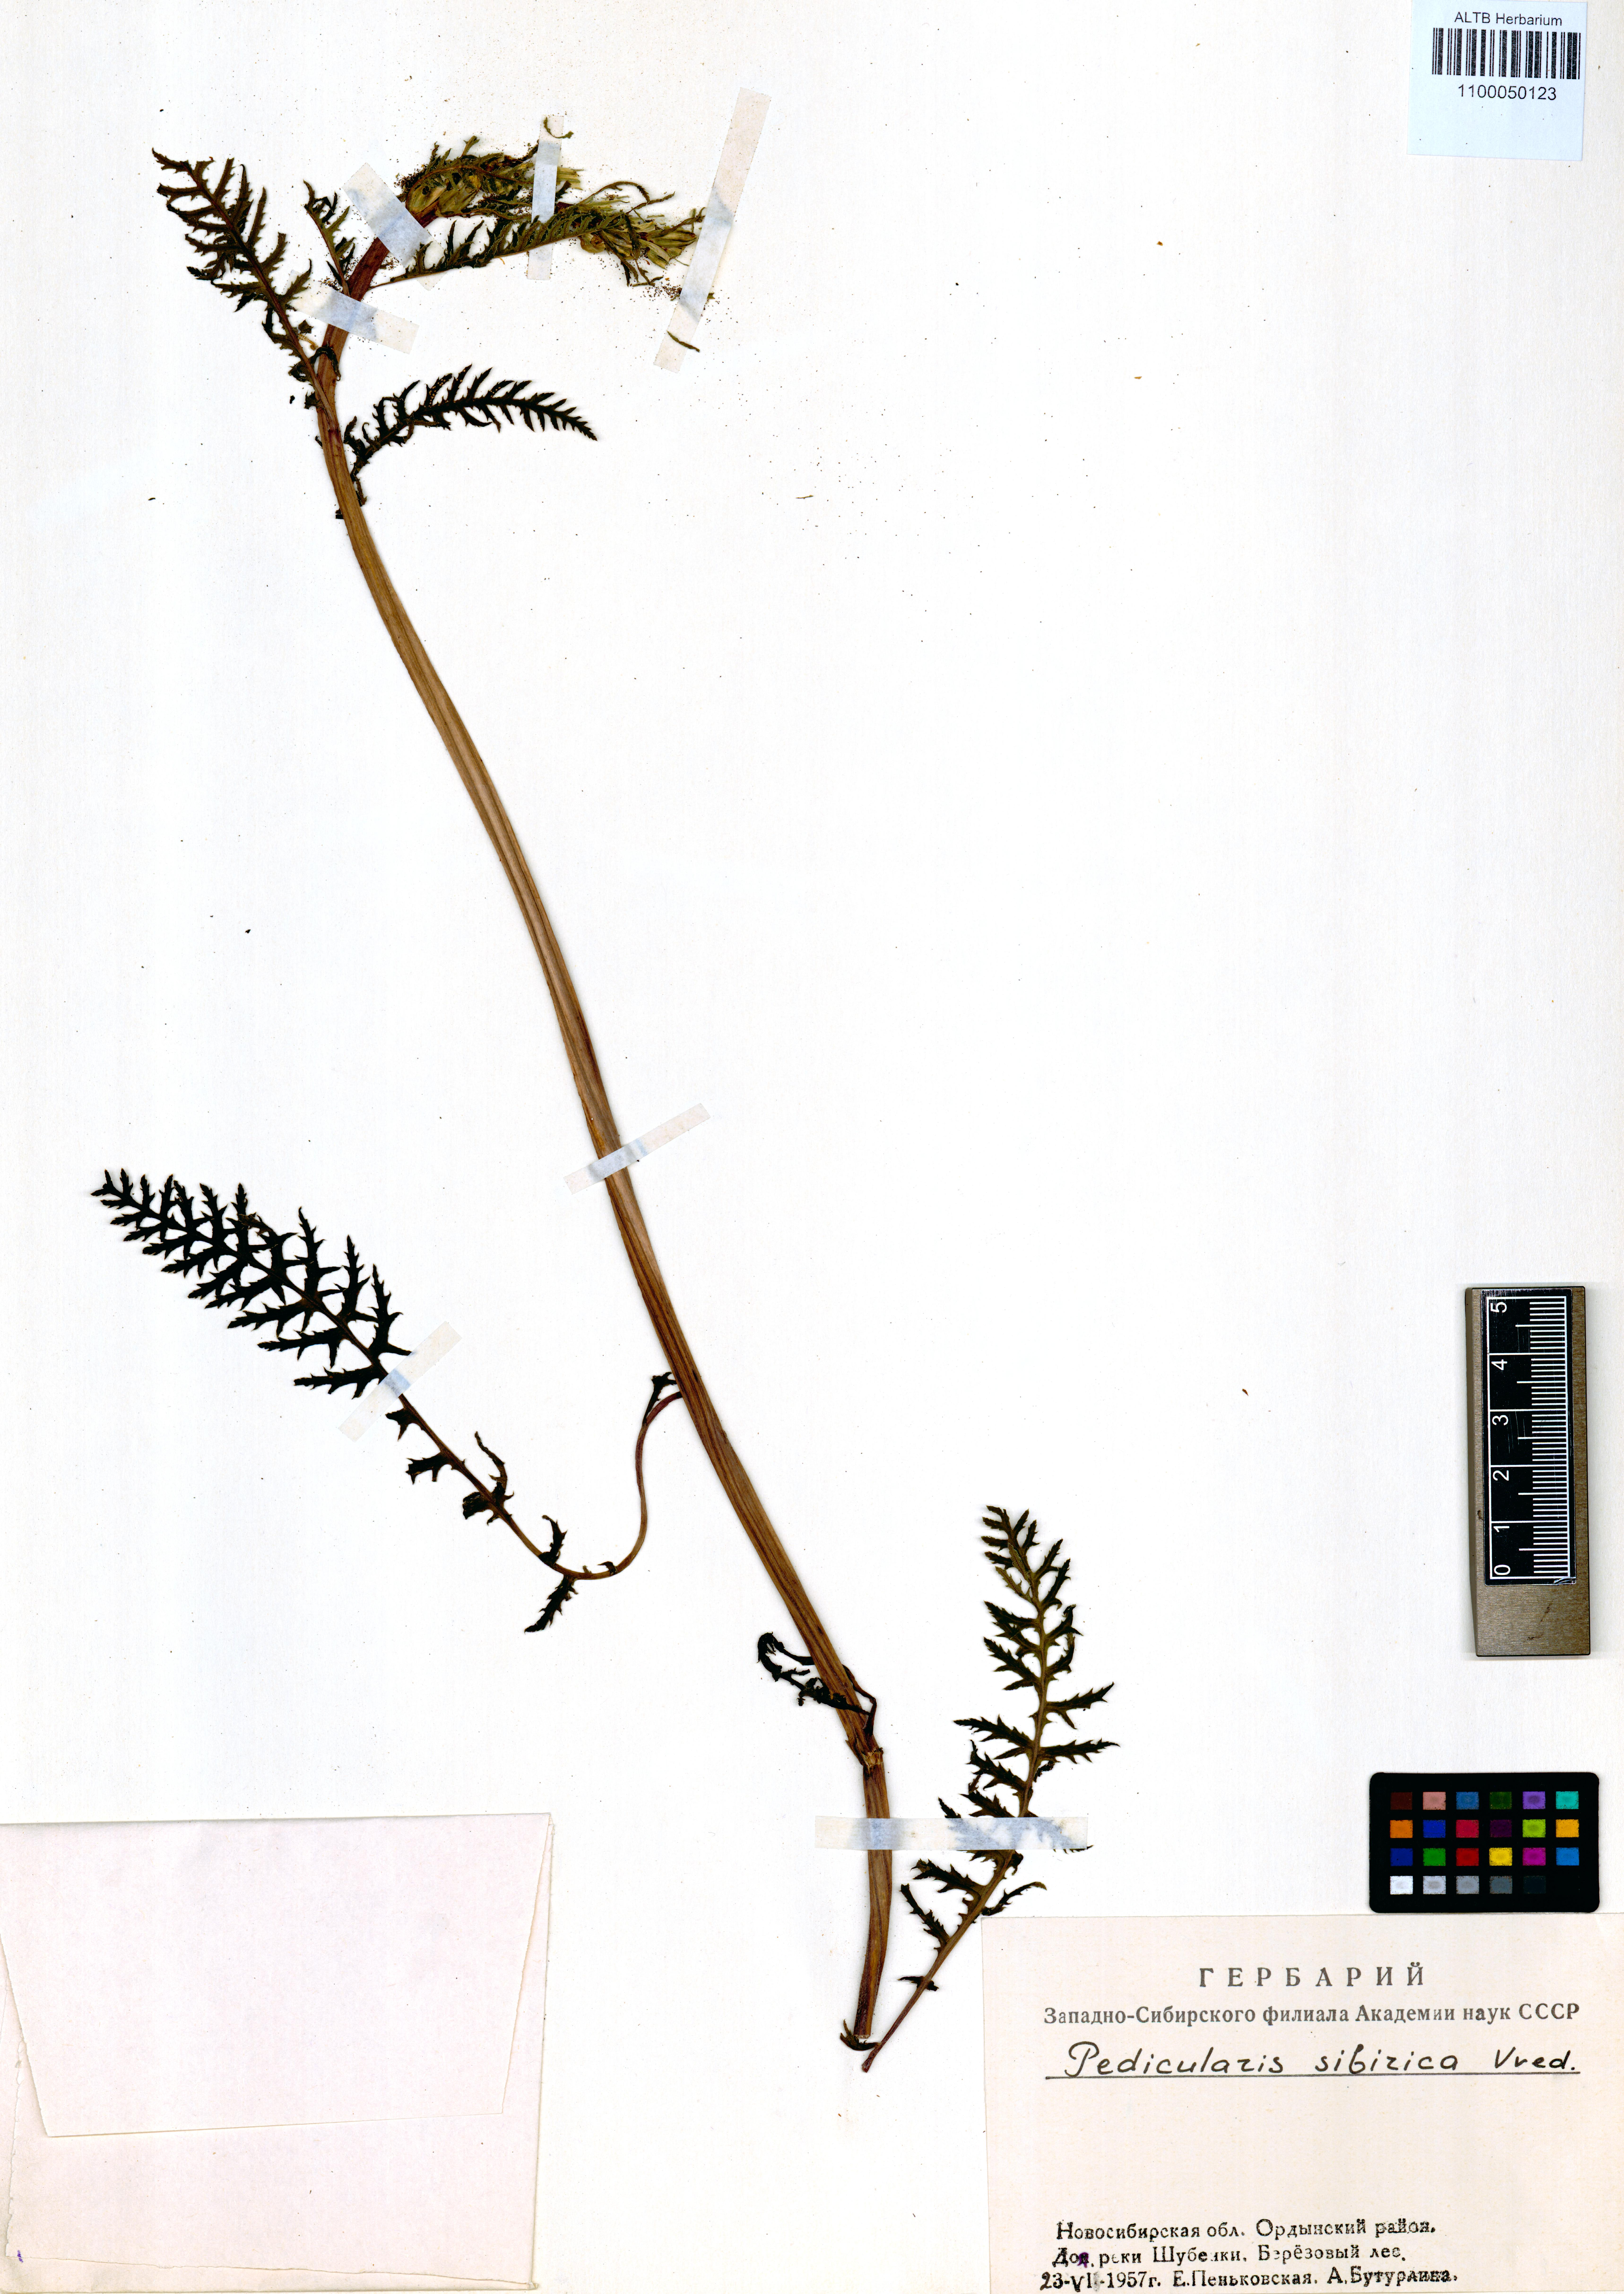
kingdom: Plantae
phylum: Tracheophyta
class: Magnoliopsida
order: Lamiales
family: Orobanchaceae
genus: Pedicularis
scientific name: Pedicularis sibirica
